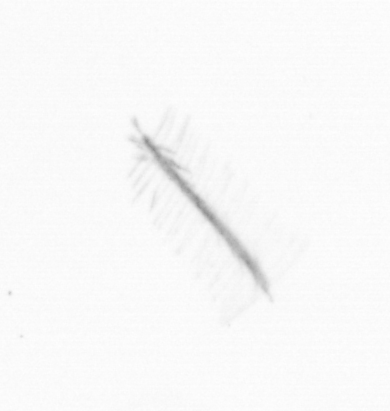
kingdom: Chromista
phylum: Ochrophyta
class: Bacillariophyceae
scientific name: Bacillariophyceae
